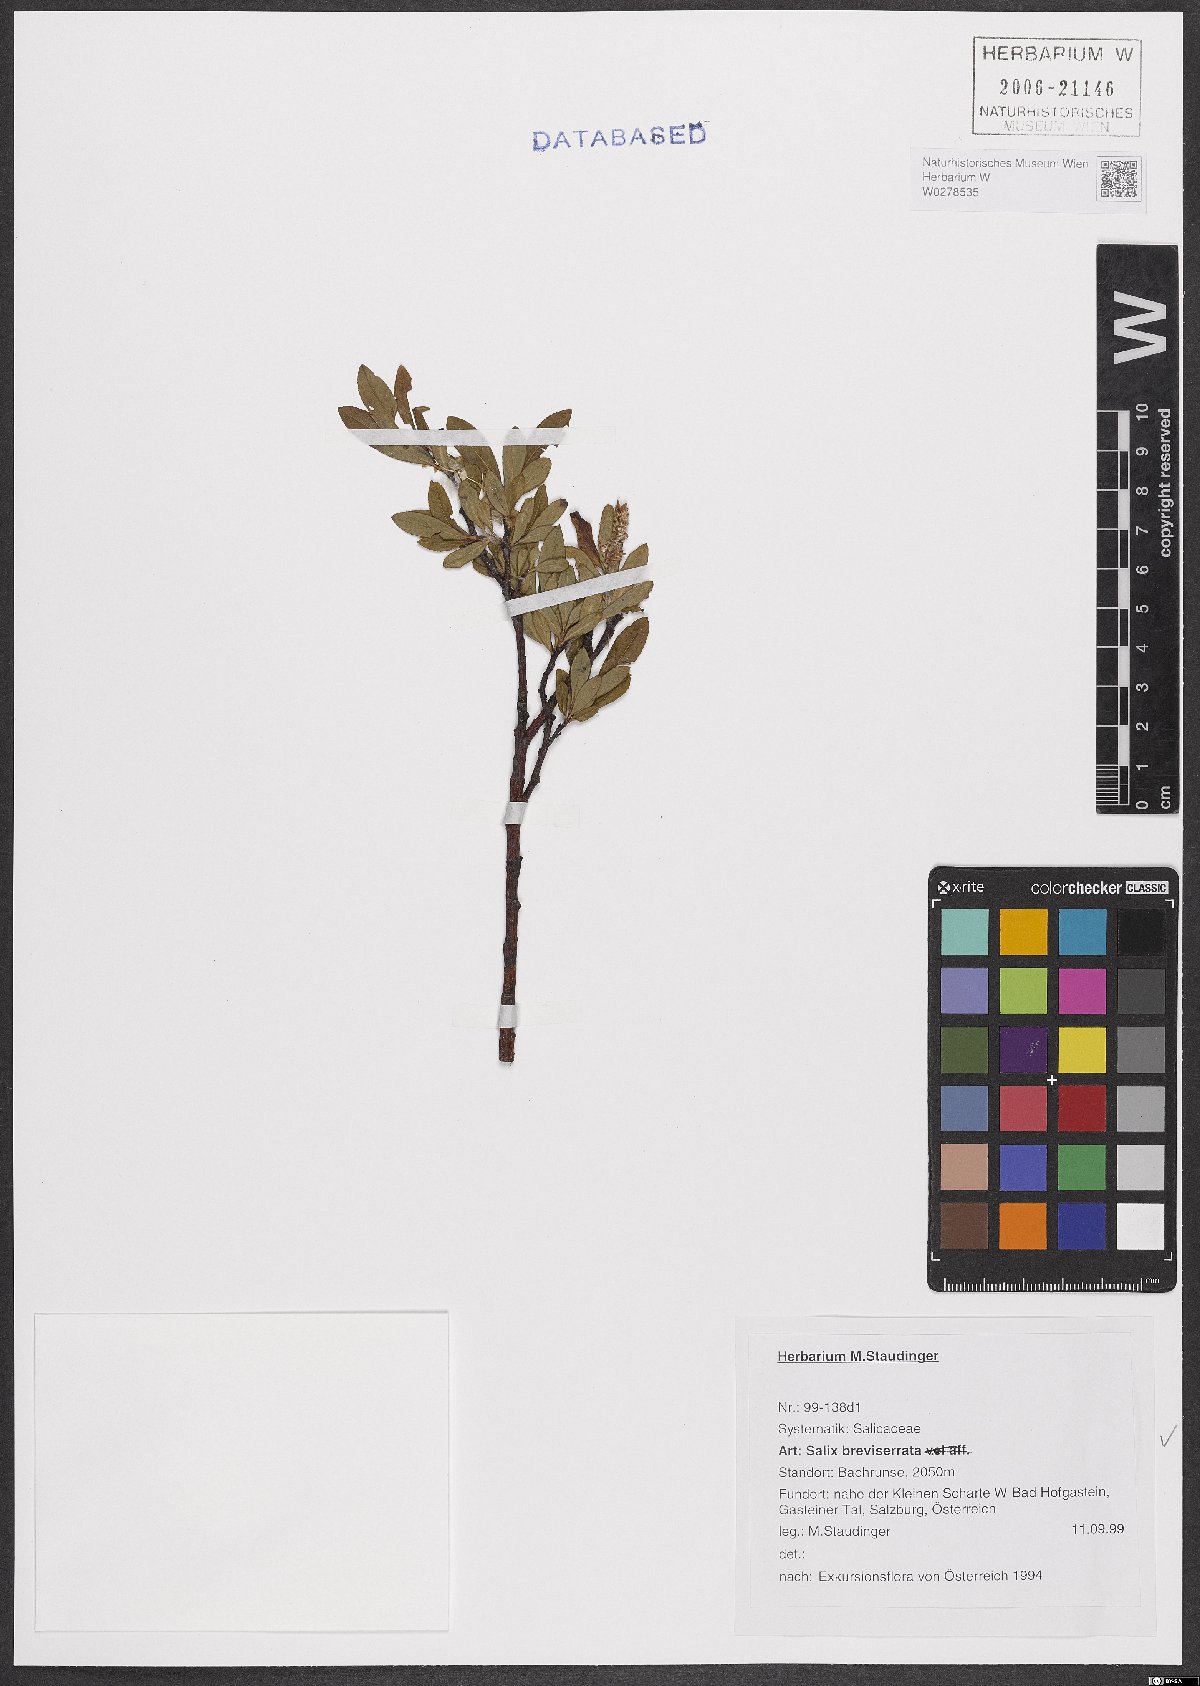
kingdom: Plantae
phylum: Tracheophyta
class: Magnoliopsida
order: Malpighiales
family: Salicaceae
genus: Salix
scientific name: Salix breviserrata
